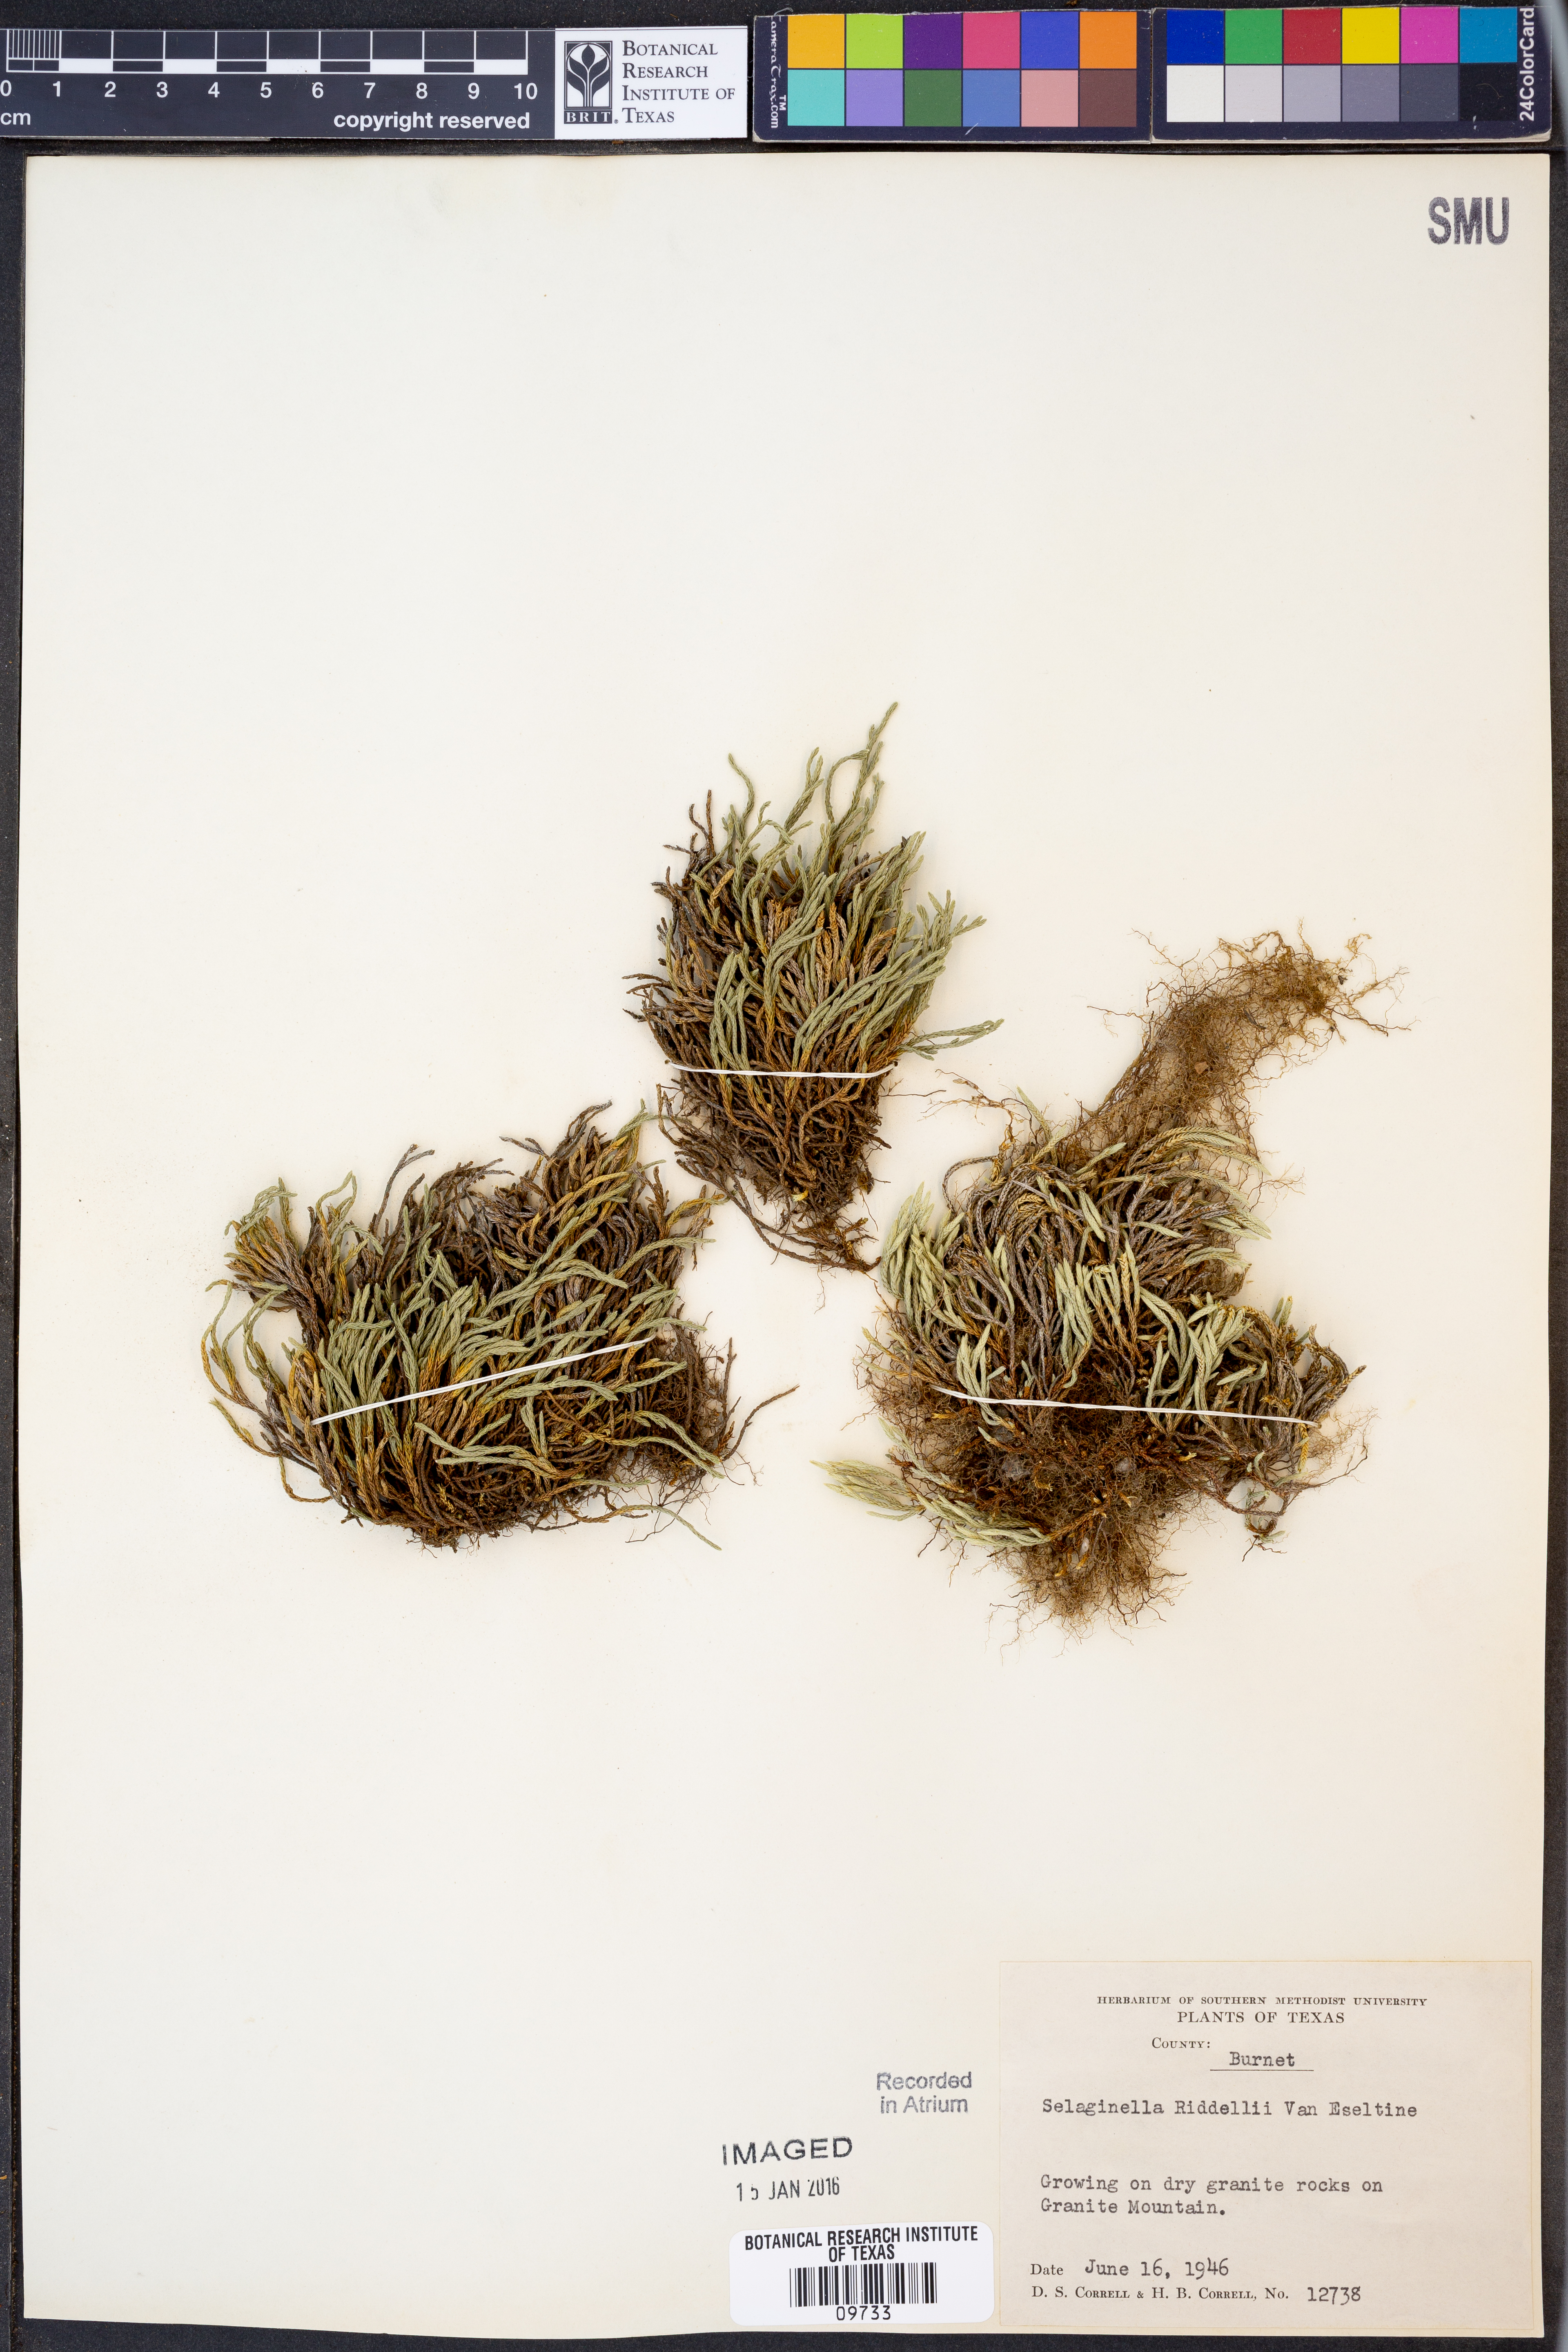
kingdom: Plantae
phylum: Tracheophyta
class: Lycopodiopsida
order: Selaginellales
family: Selaginellaceae
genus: Selaginella
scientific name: Selaginella corallina
